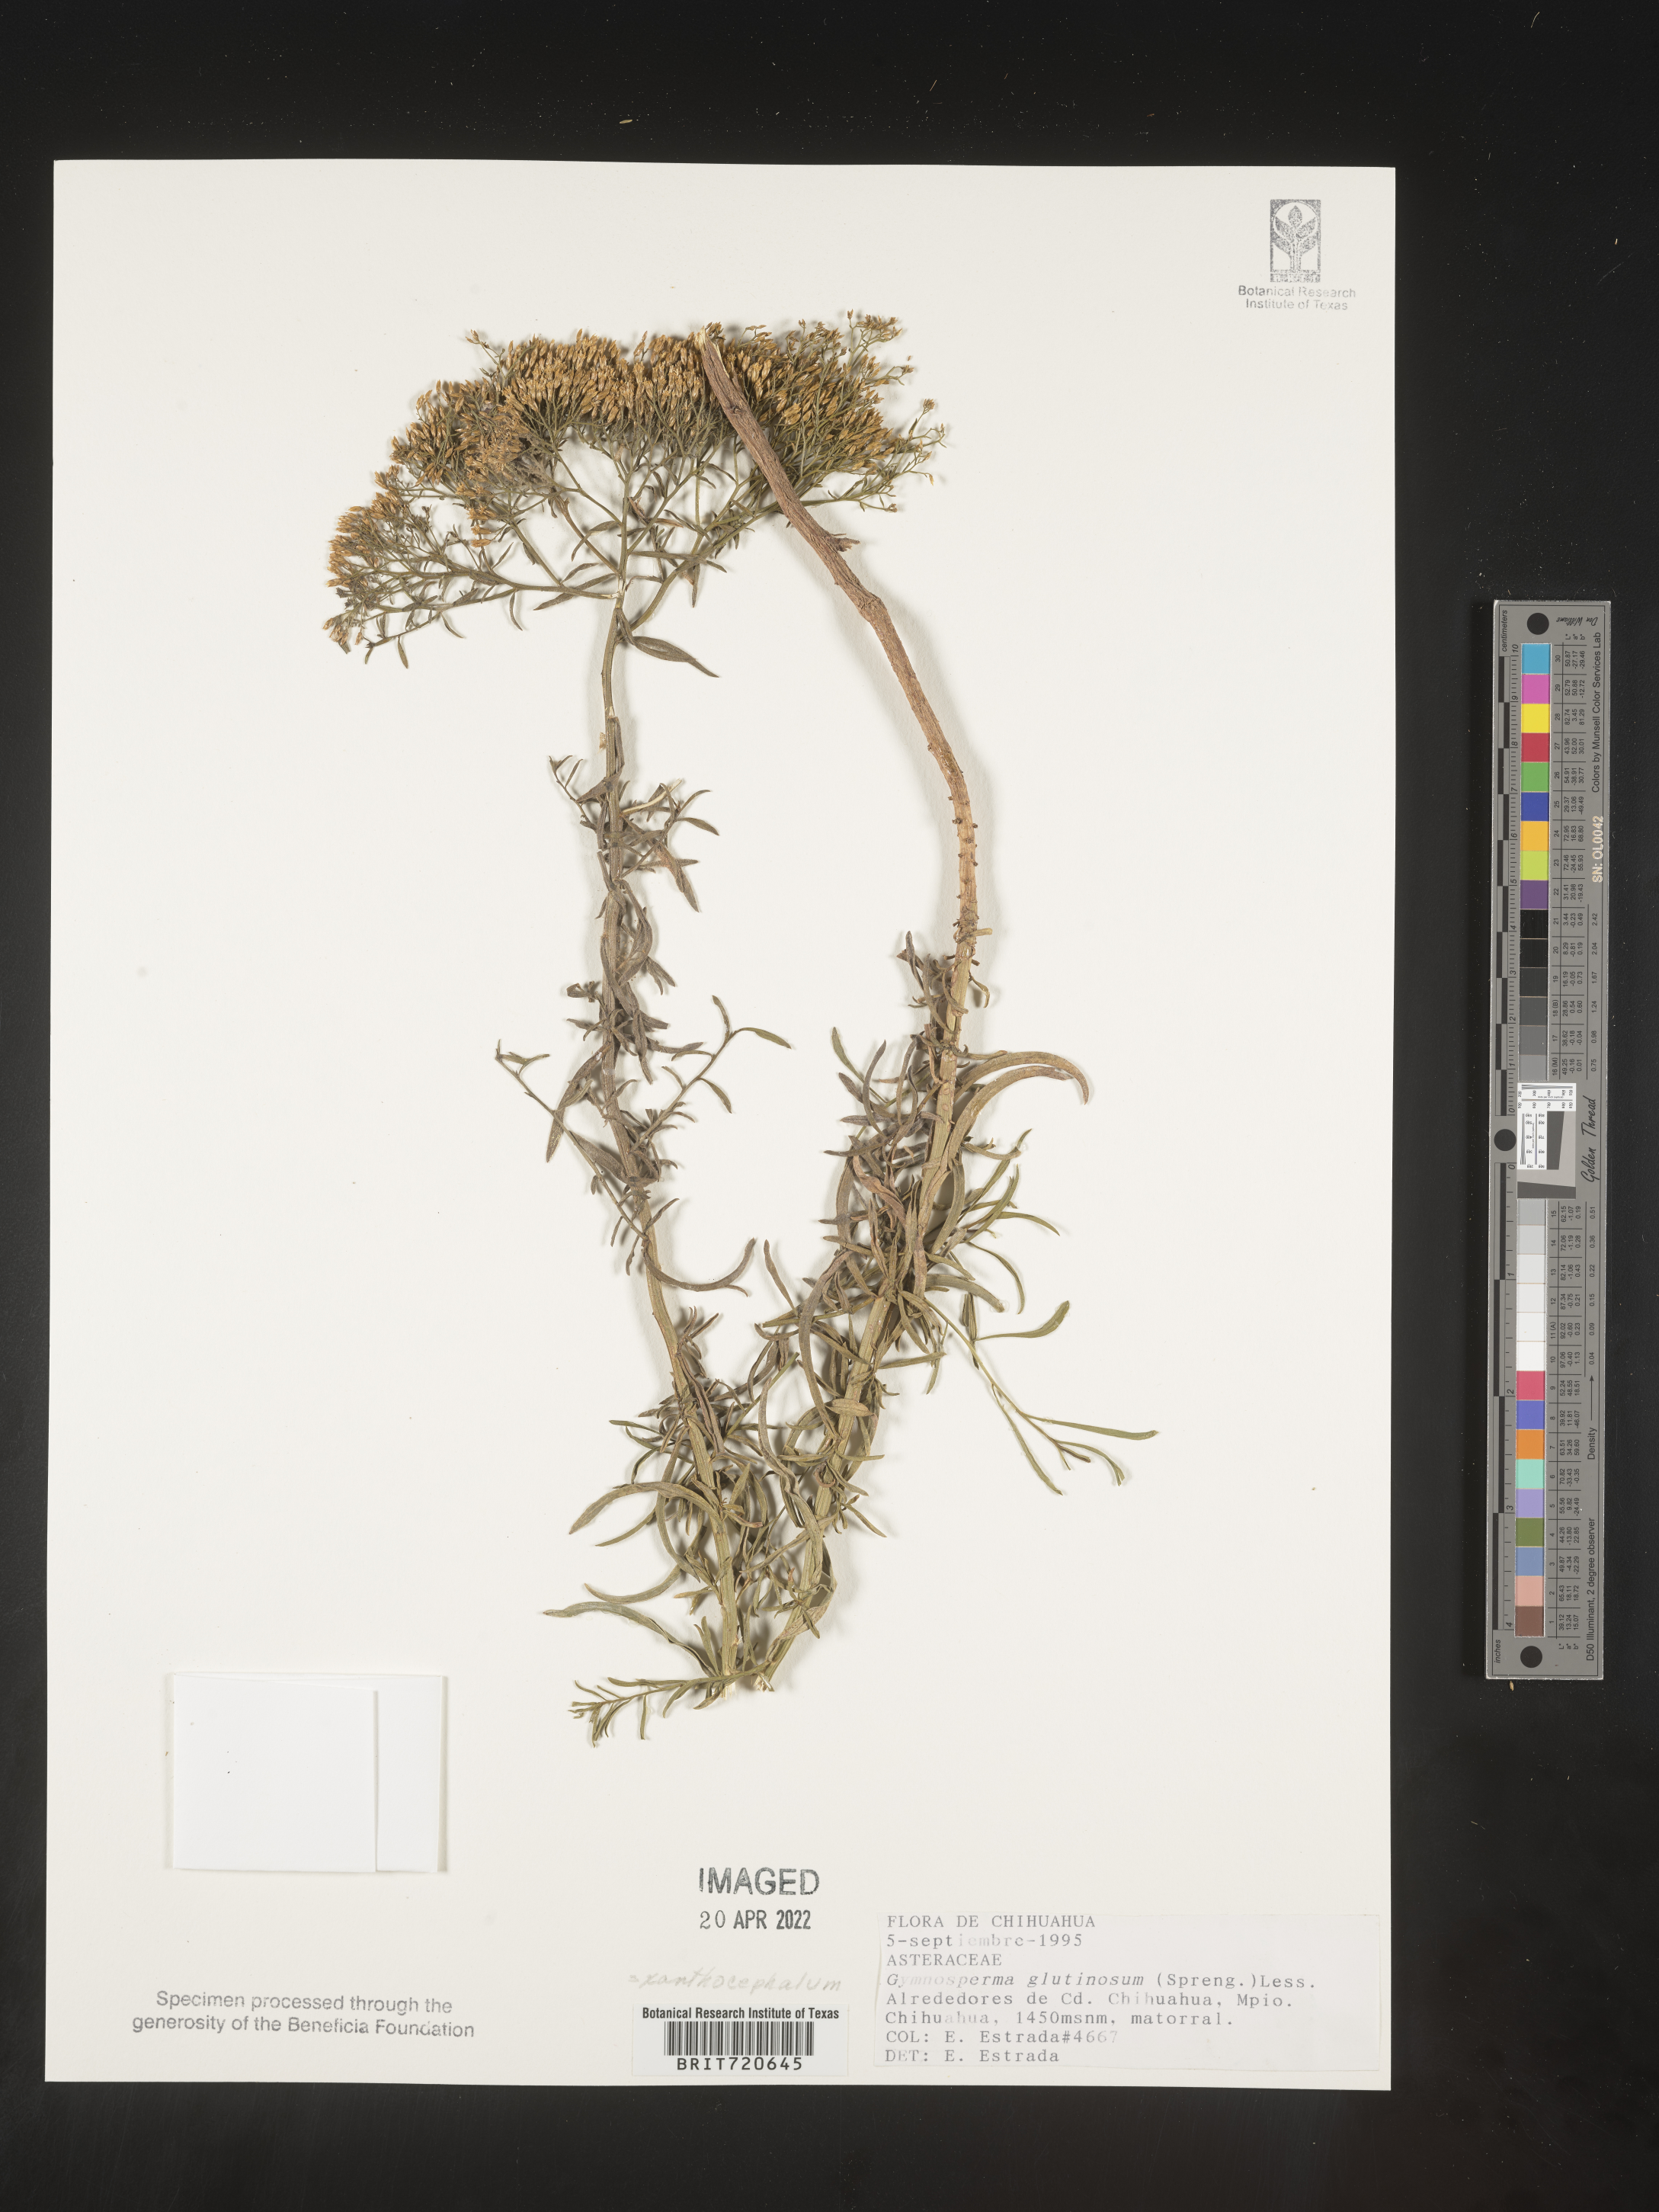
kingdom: Plantae
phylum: Tracheophyta
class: Magnoliopsida
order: Asterales
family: Asteraceae
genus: Gymnosperma
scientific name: Gymnosperma glutinosum
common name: Gumhead
